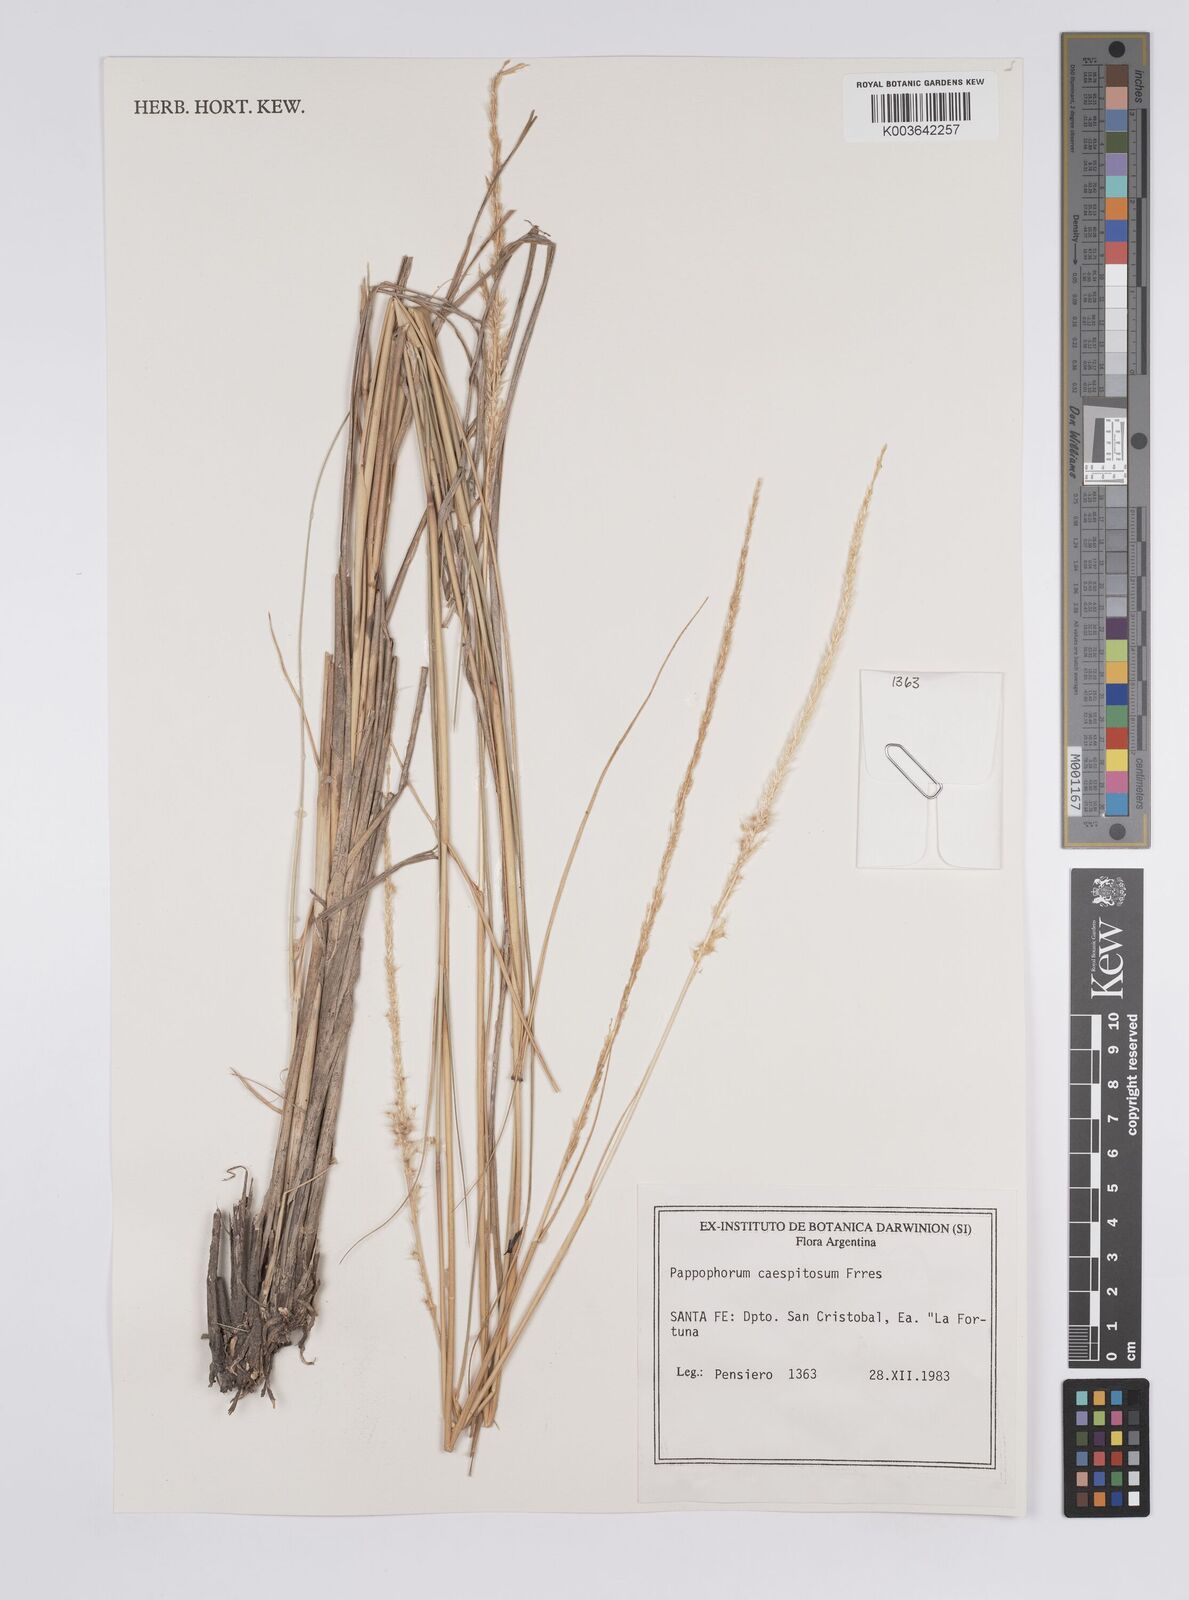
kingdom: Plantae
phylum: Tracheophyta
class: Liliopsida
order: Poales
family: Poaceae
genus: Pappophorum
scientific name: Pappophorum caespitosum
